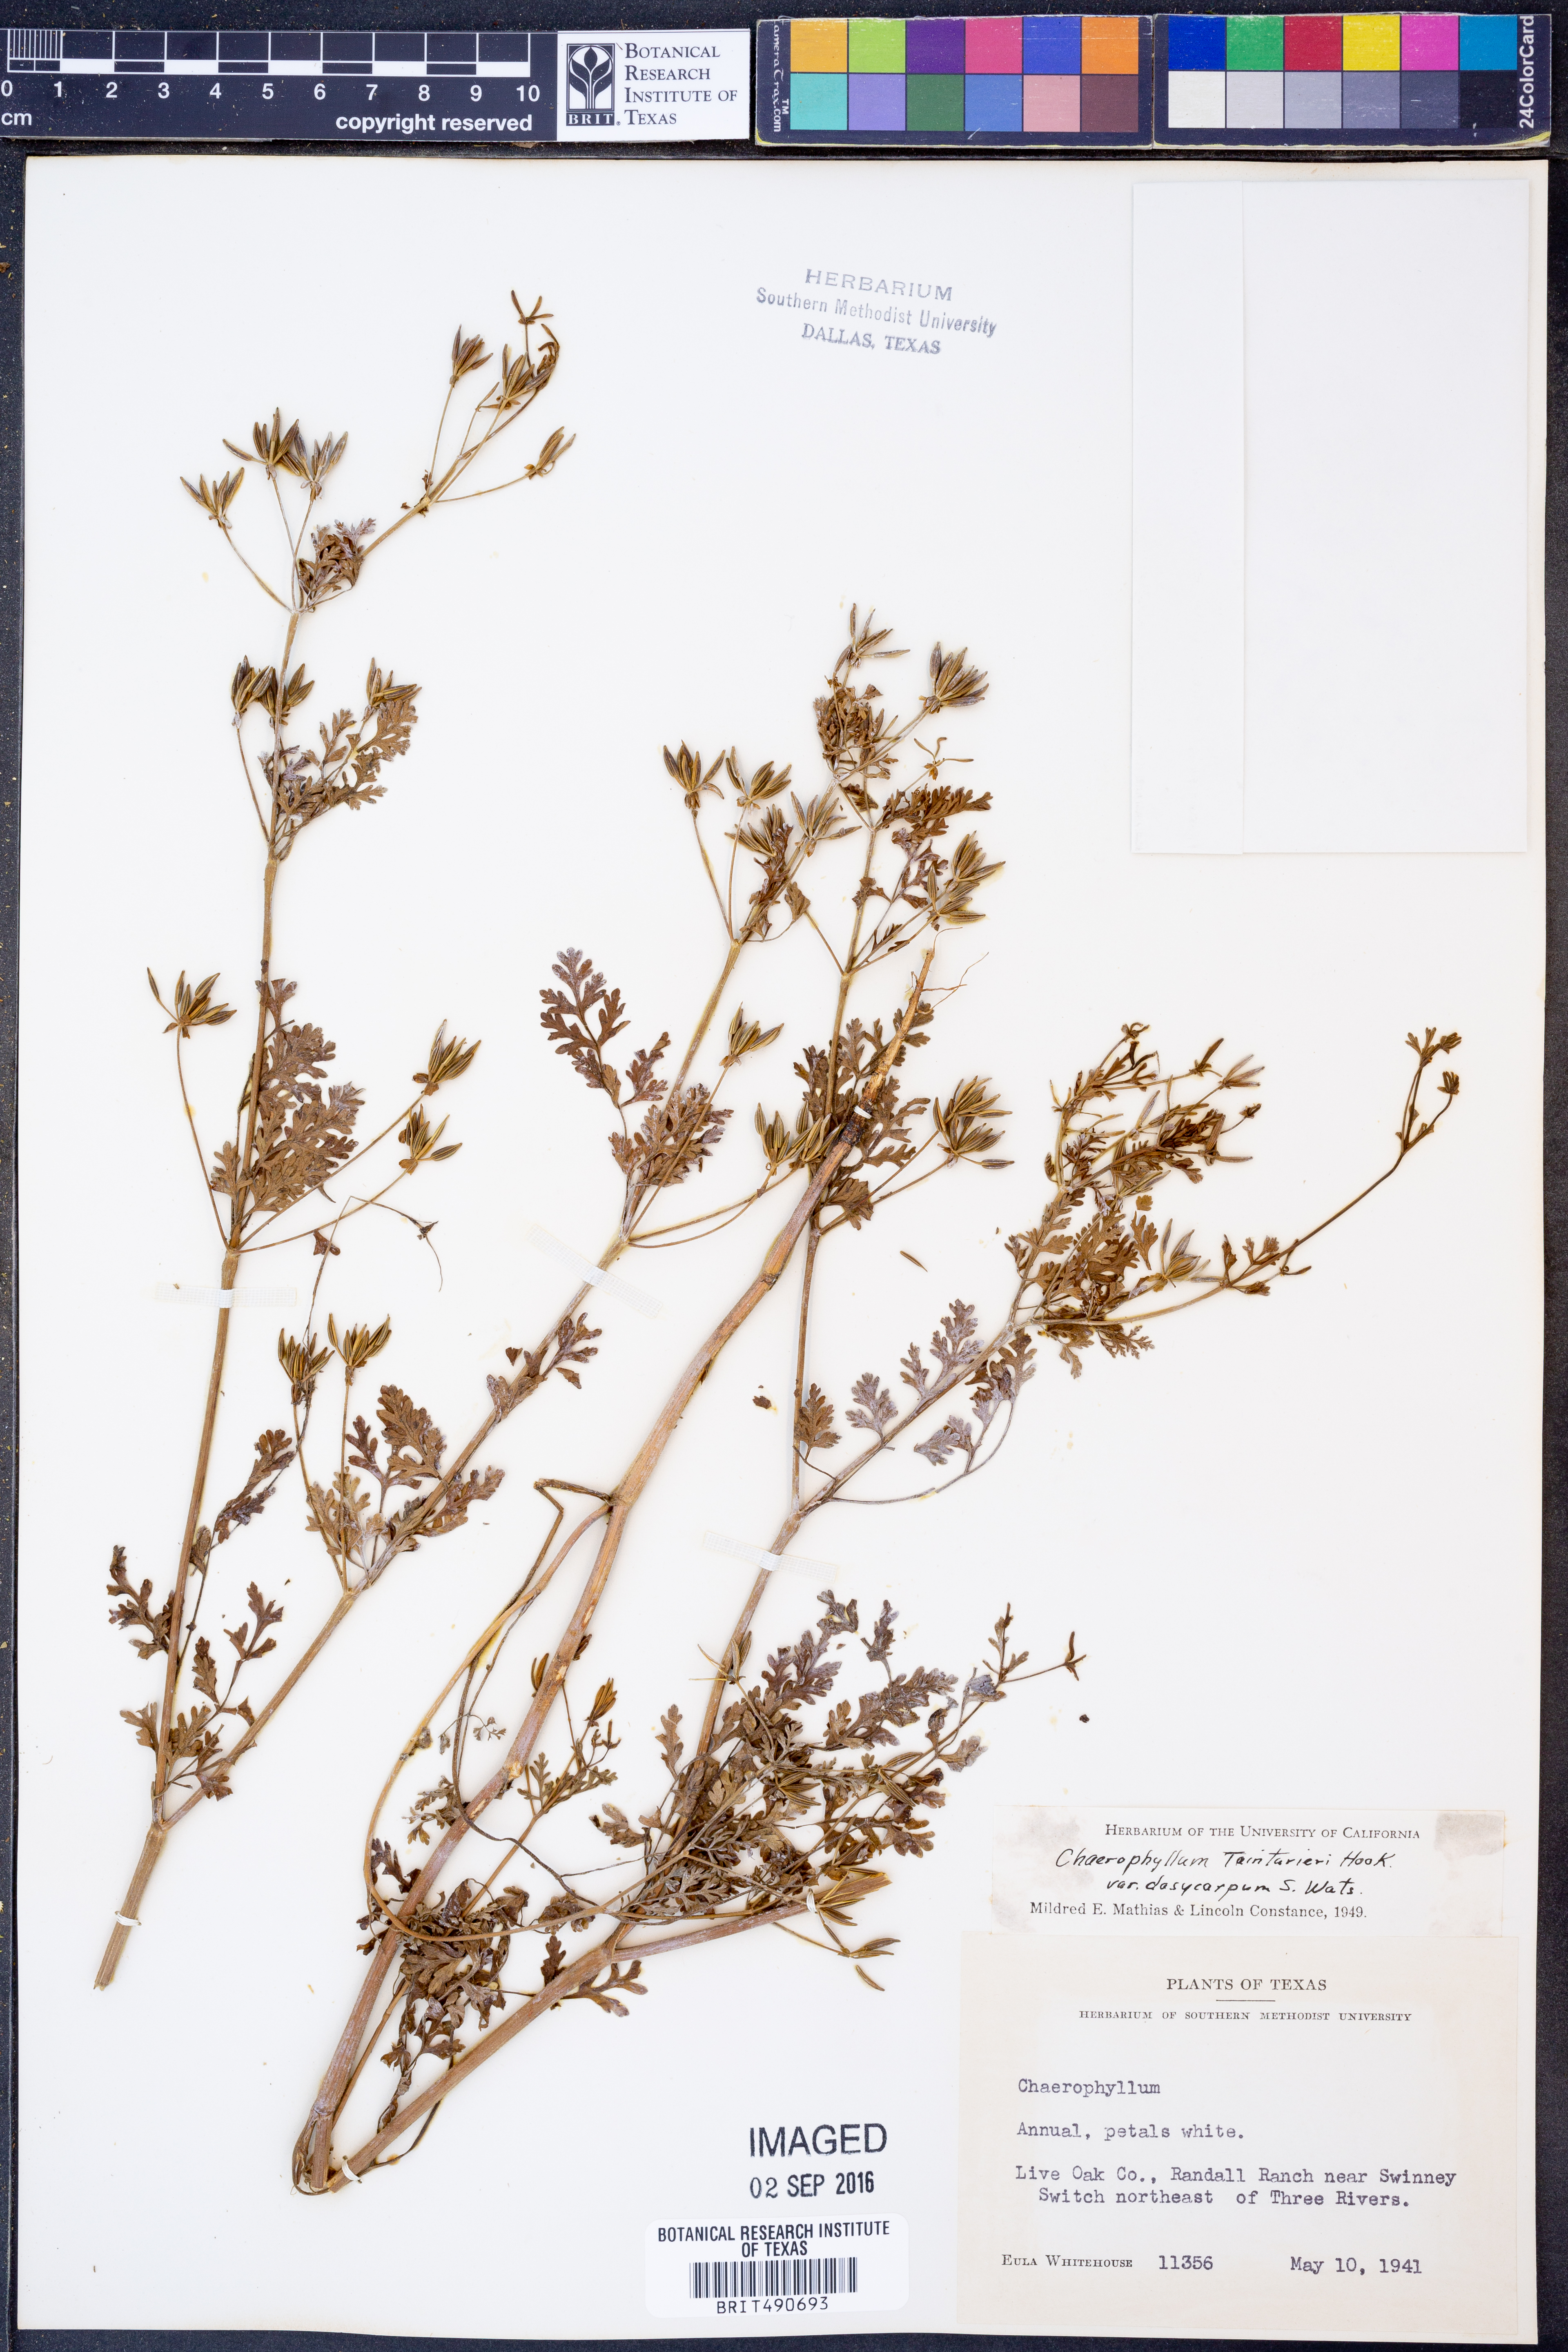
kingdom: Plantae
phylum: Tracheophyta
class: Magnoliopsida
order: Apiales
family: Apiaceae
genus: Chaerophyllum
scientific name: Chaerophyllum dasycarpum
